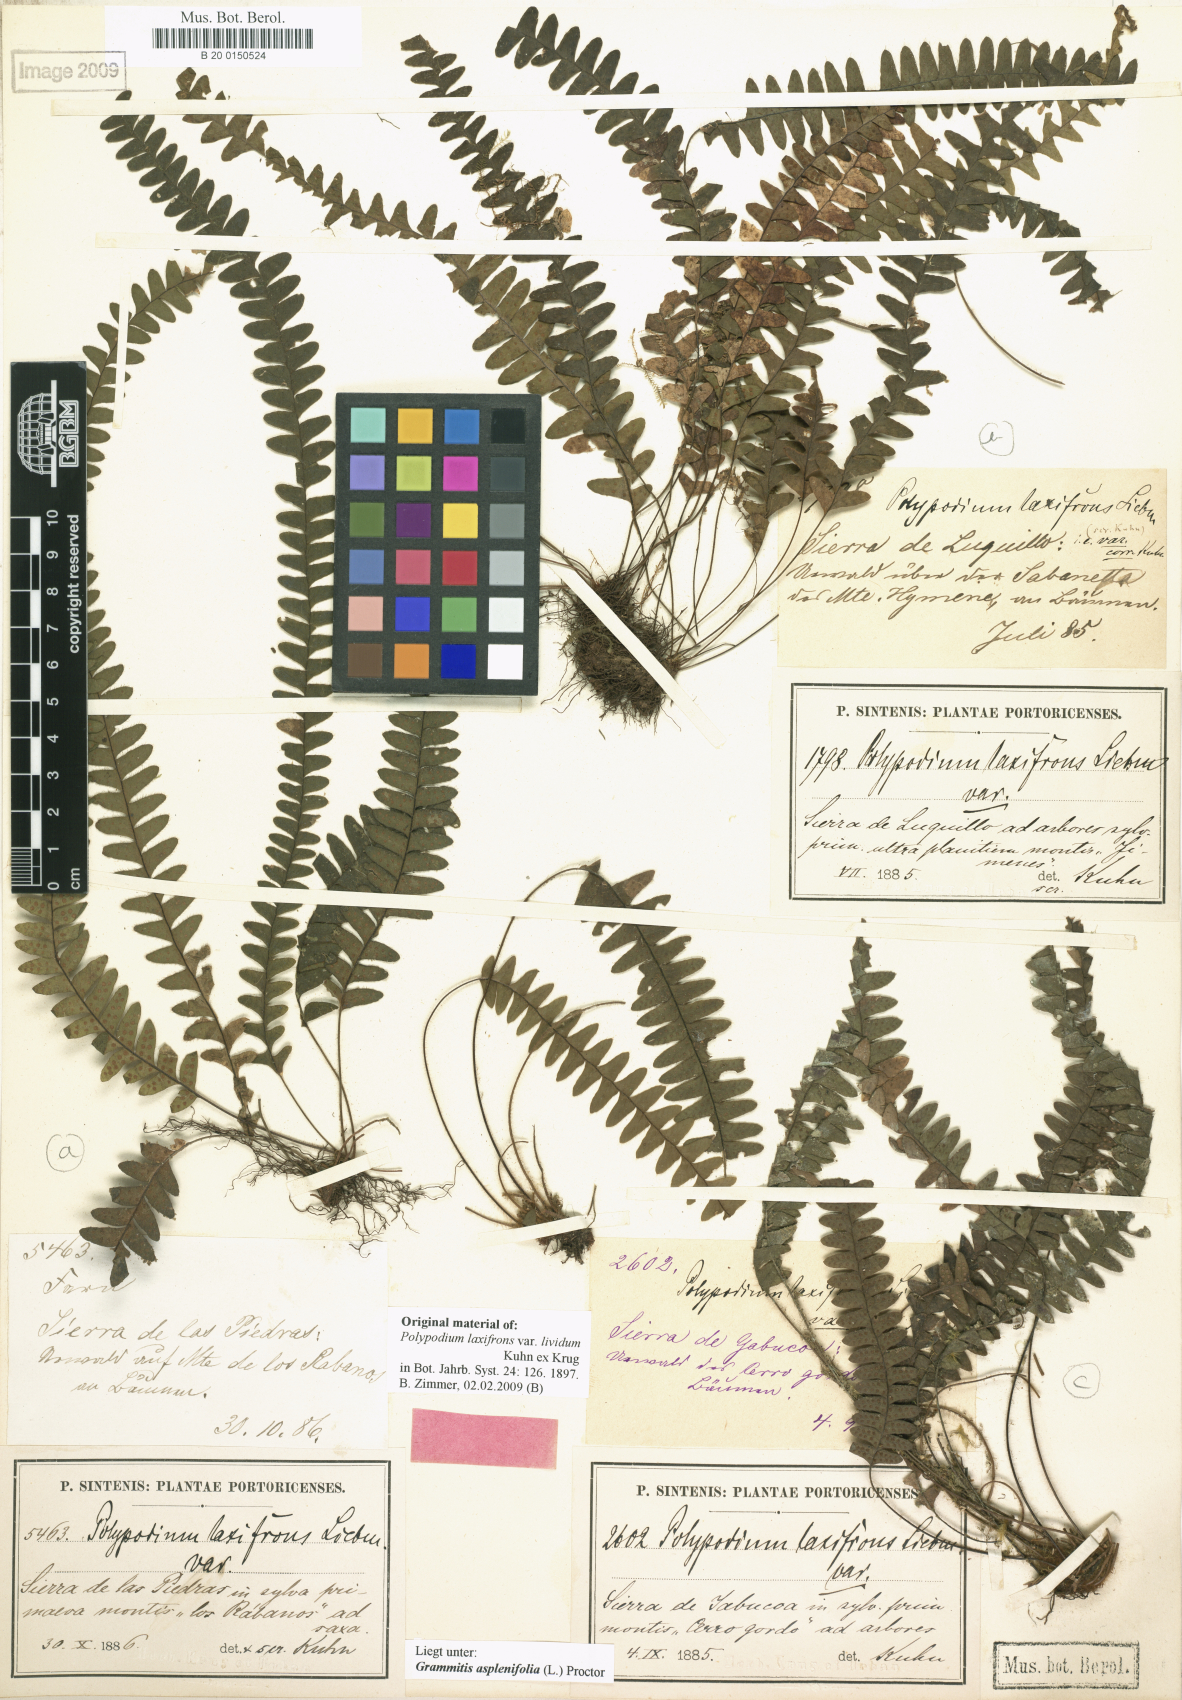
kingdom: Plantae
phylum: Tracheophyta
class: Polypodiopsida
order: Polypodiales
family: Polypodiaceae
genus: Terpsichore
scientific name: Terpsichore asplenifolia
